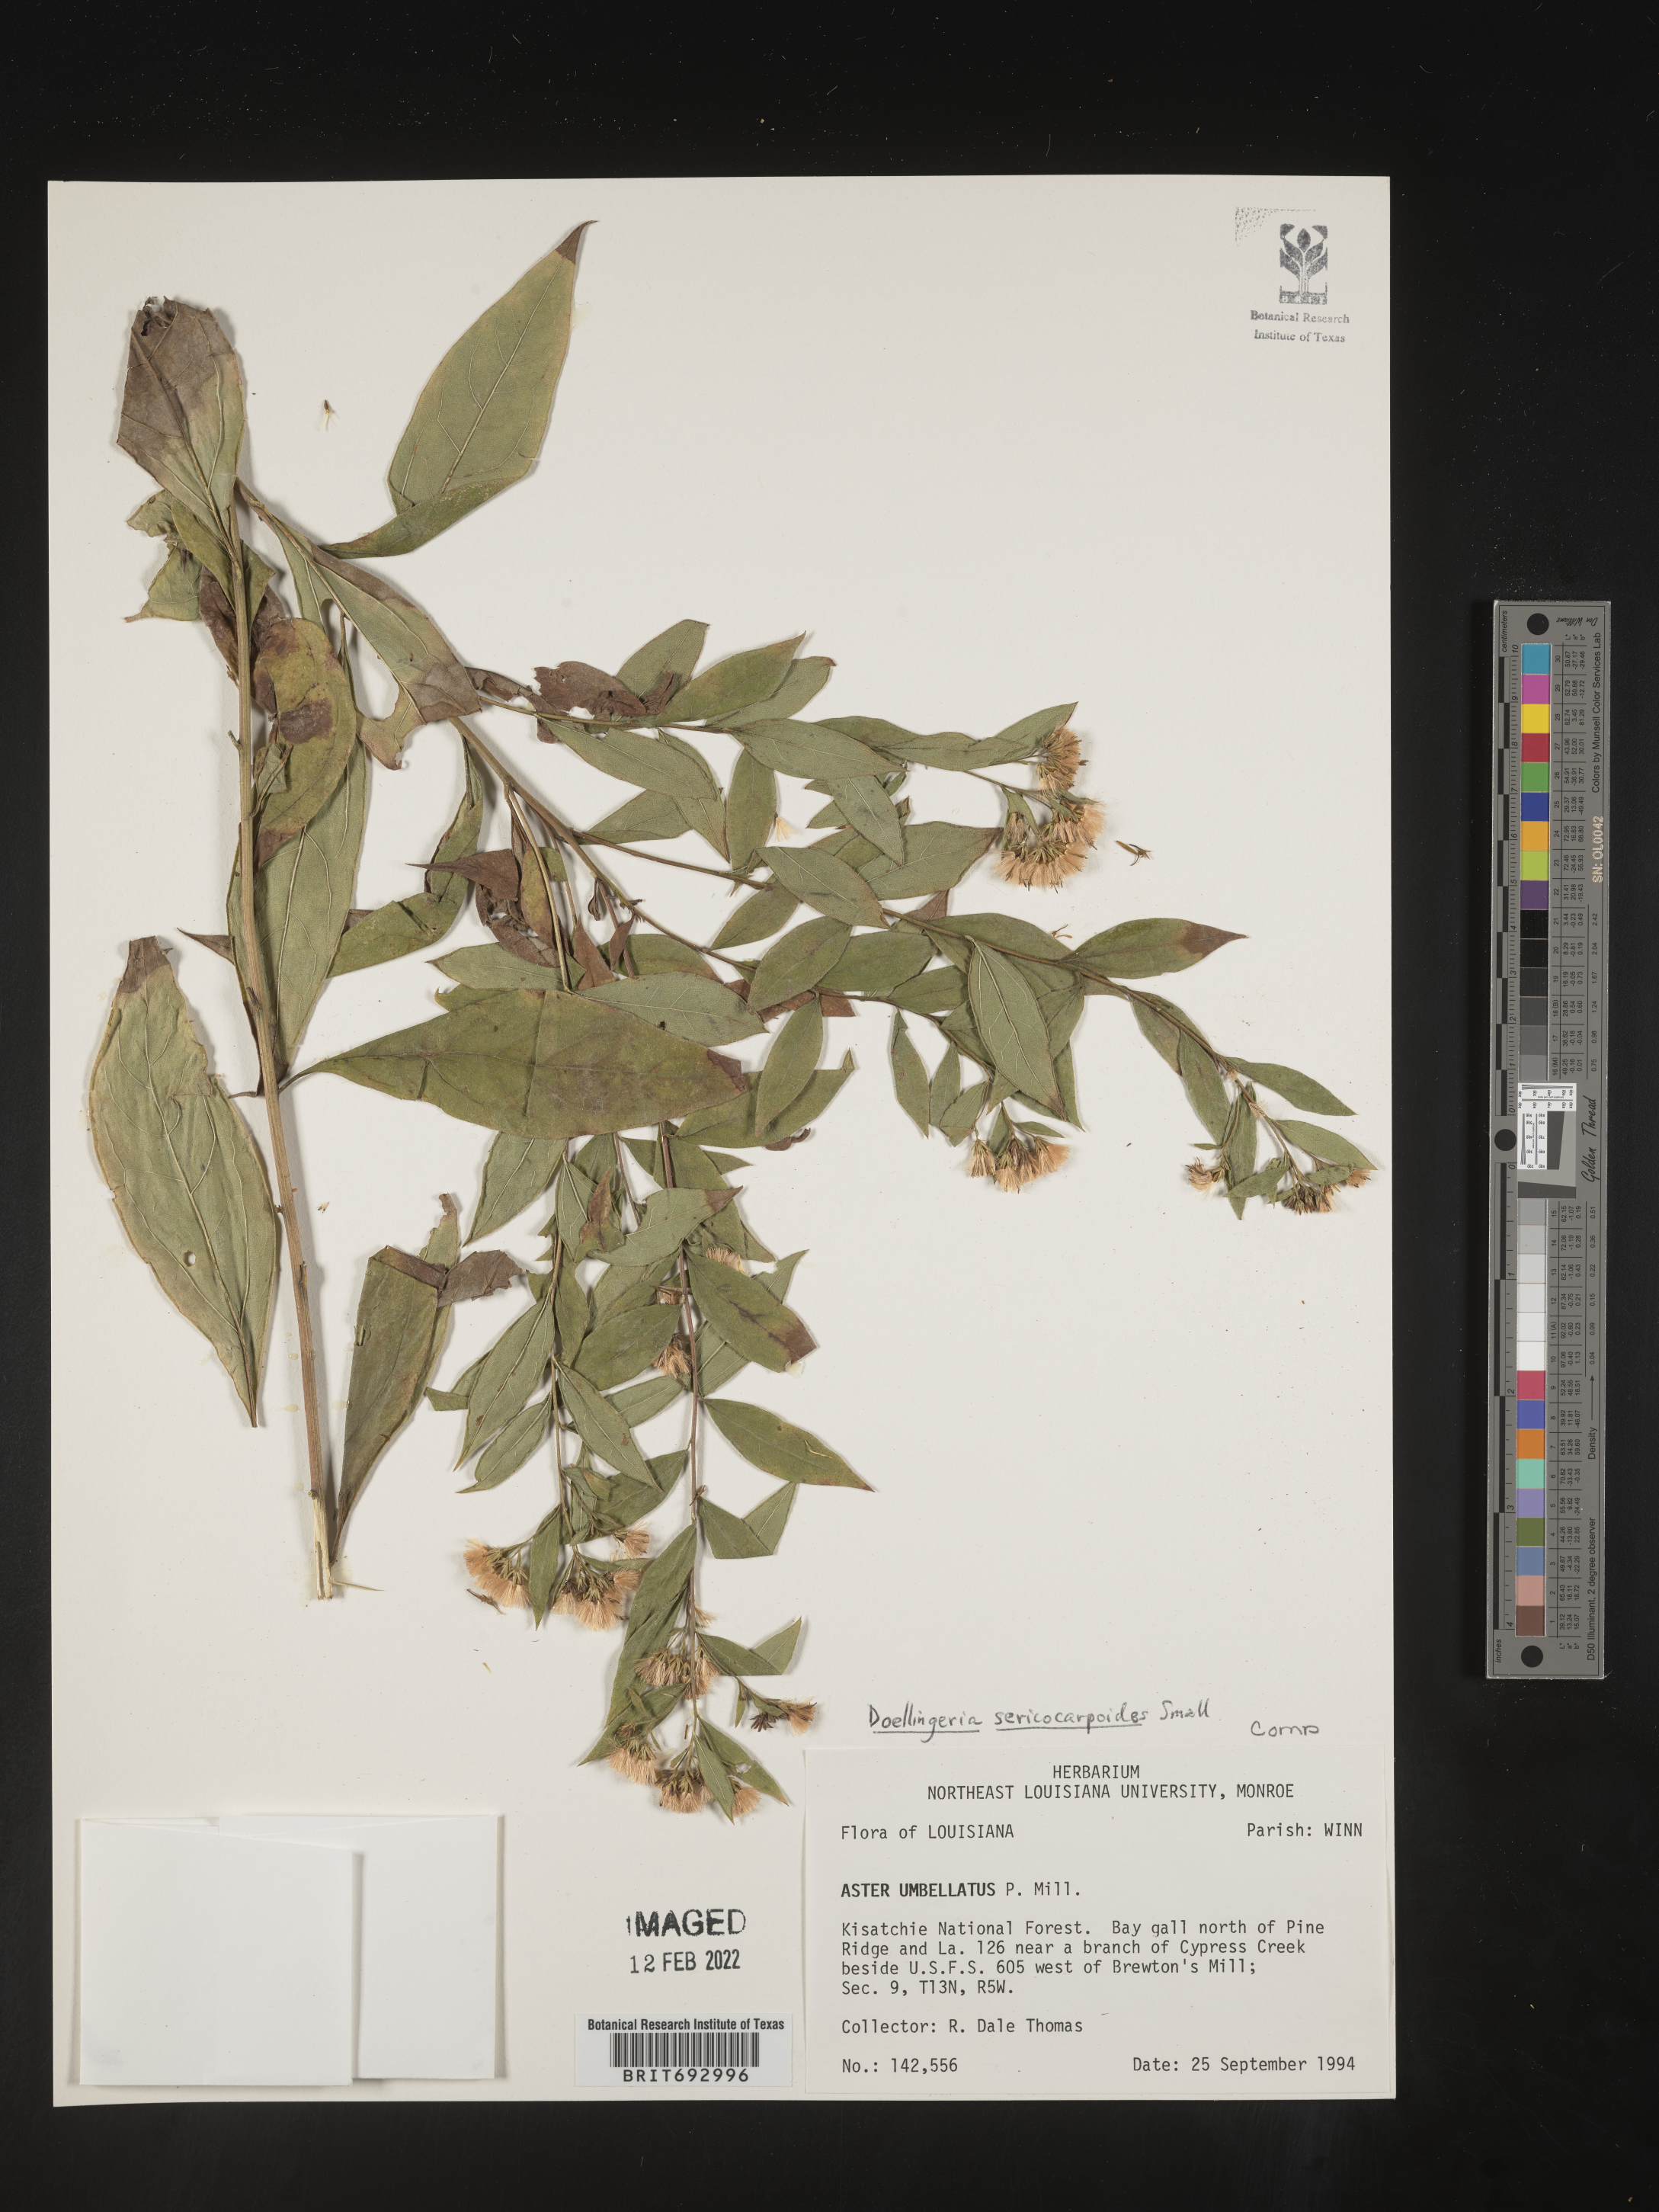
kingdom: Plantae
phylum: Tracheophyta
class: Magnoliopsida
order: Asterales
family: Asteraceae
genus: Doellingeria
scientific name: Doellingeria sericocarpoides
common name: Southern tall flat-top aster
